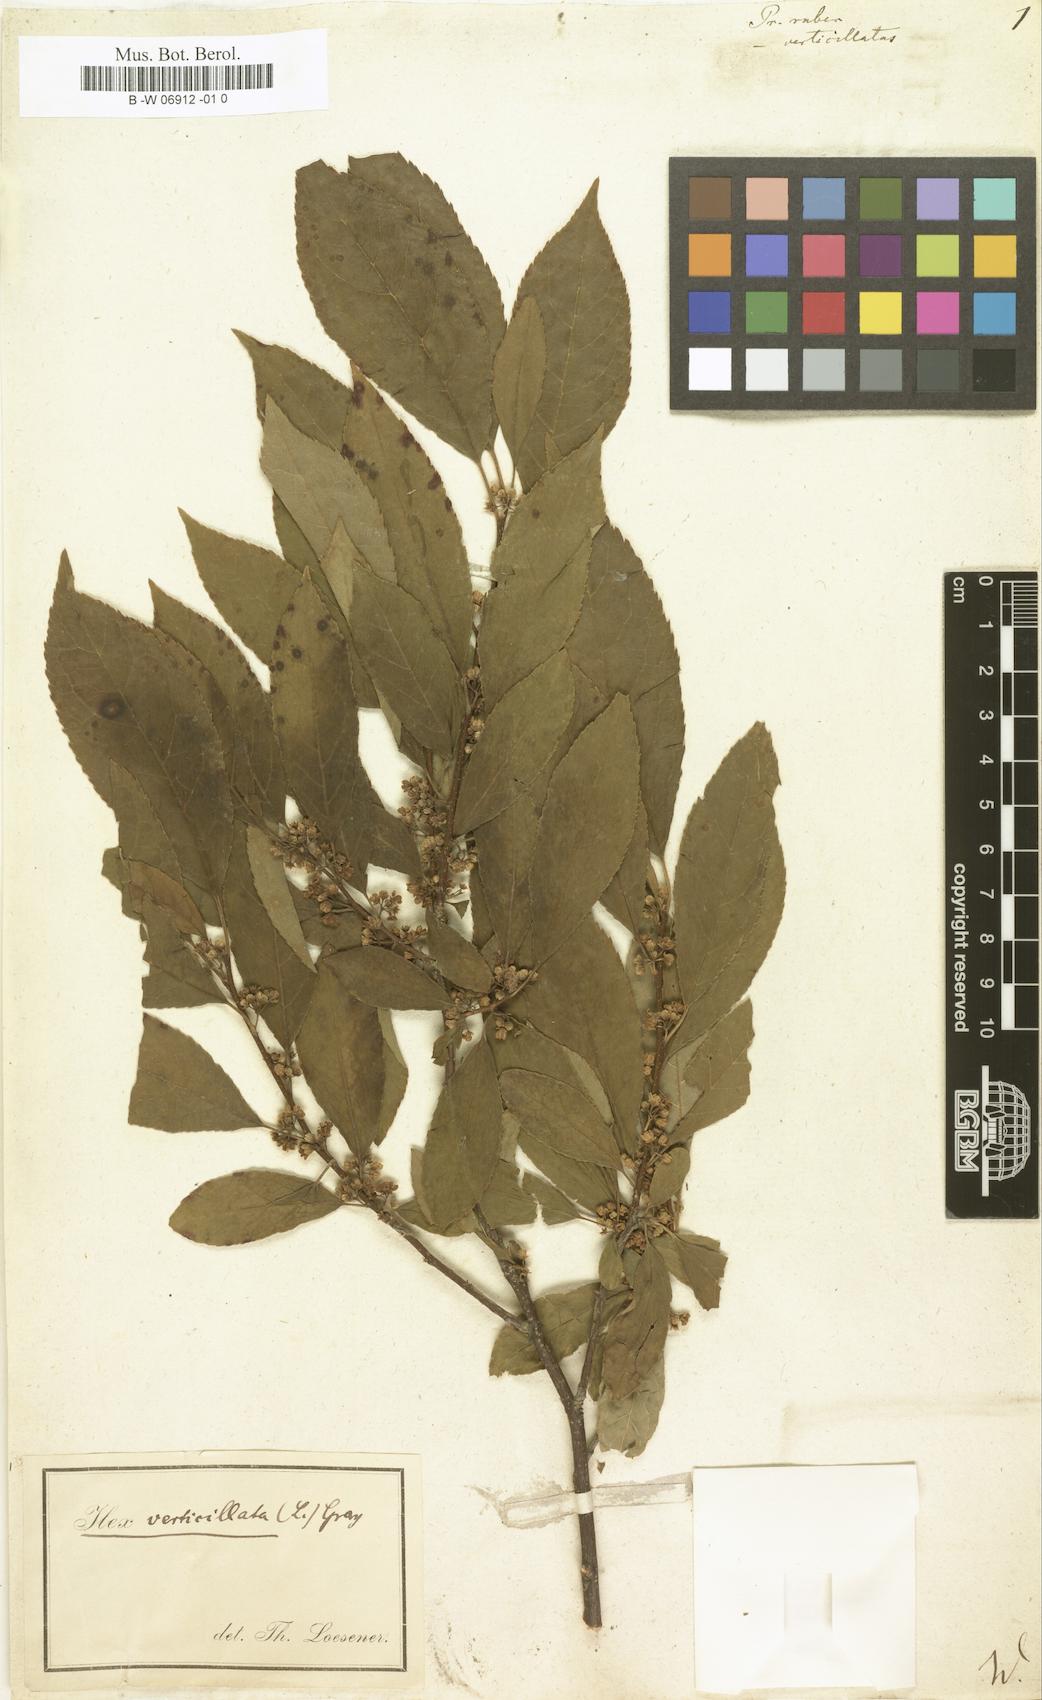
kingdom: Plantae
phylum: Tracheophyta
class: Magnoliopsida
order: Aquifoliales
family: Aquifoliaceae
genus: Ilex
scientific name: Ilex
